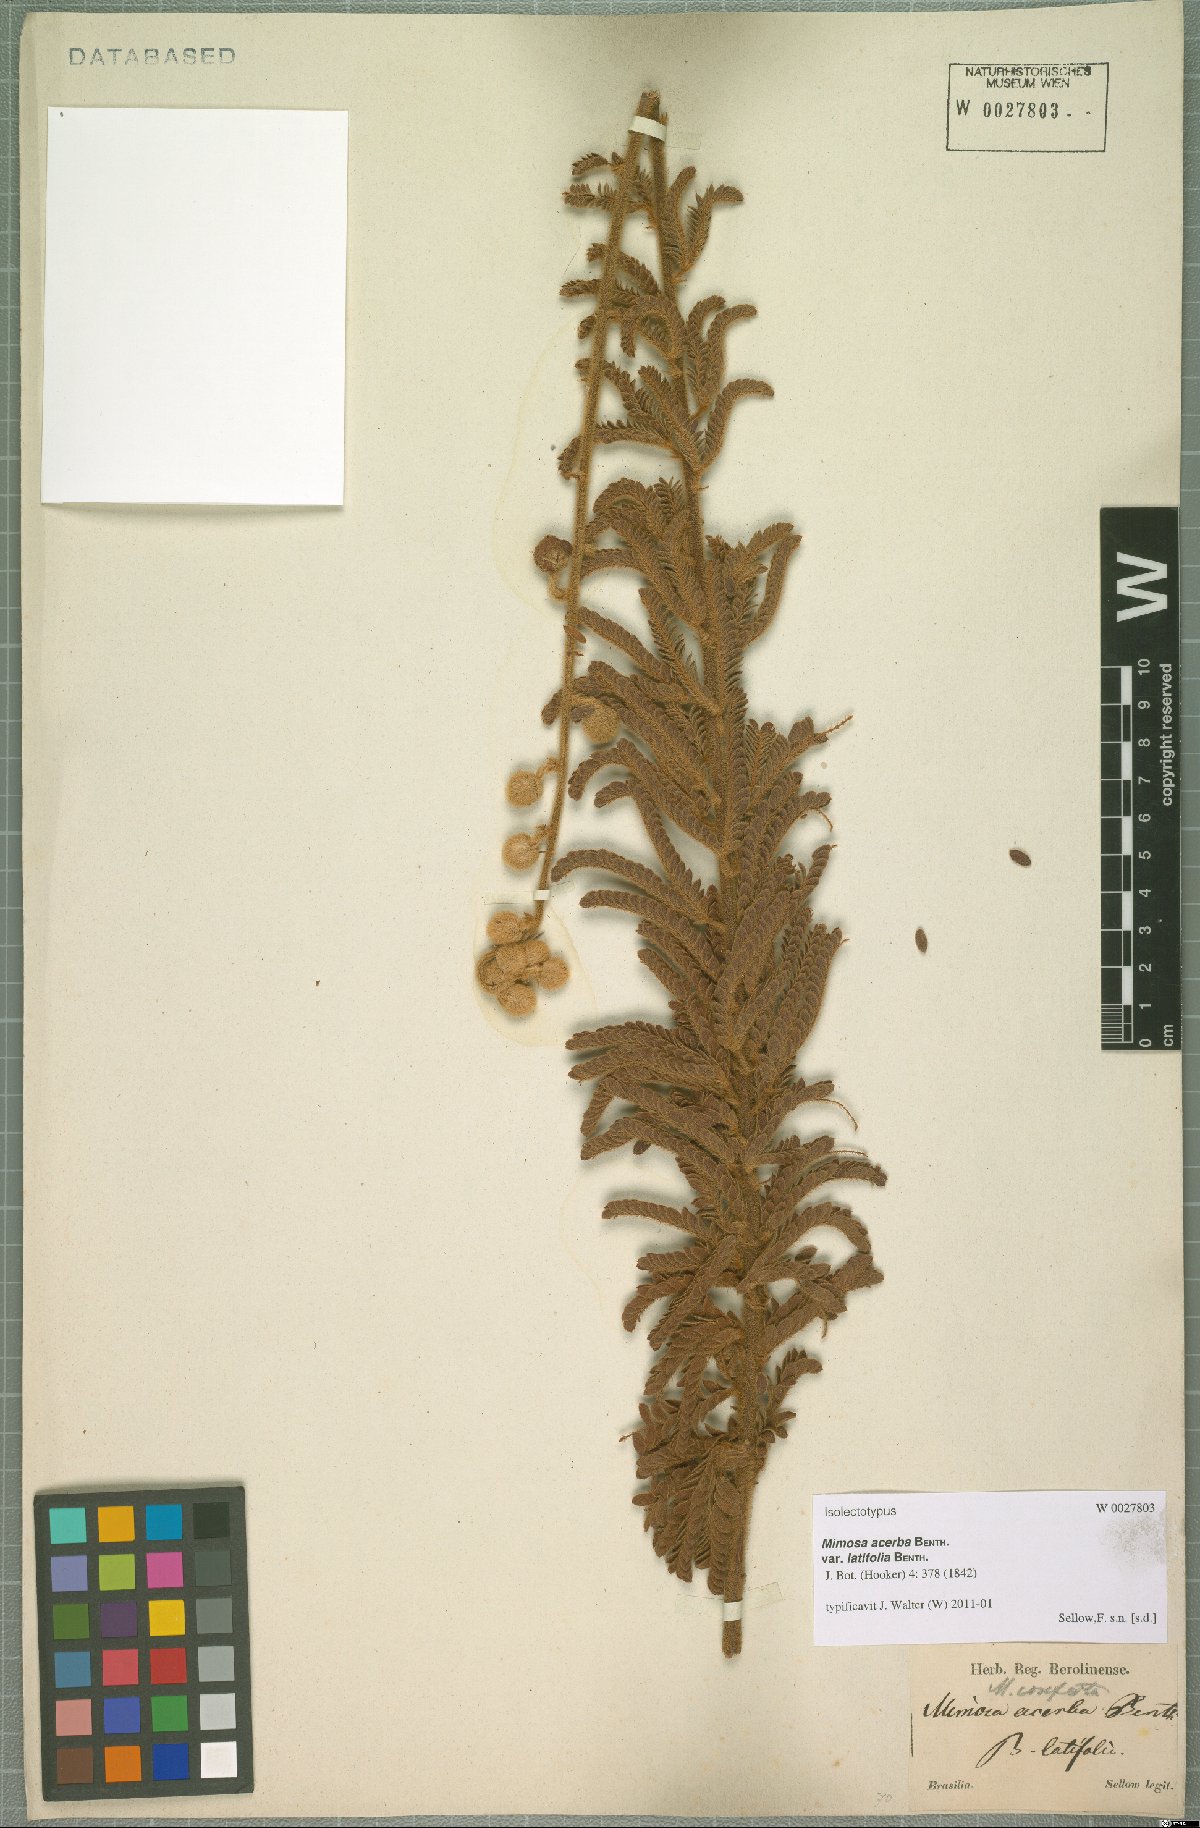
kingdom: Plantae
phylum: Tracheophyta
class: Magnoliopsida
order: Fabales
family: Fabaceae
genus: Mimosa
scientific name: Mimosa dolens
